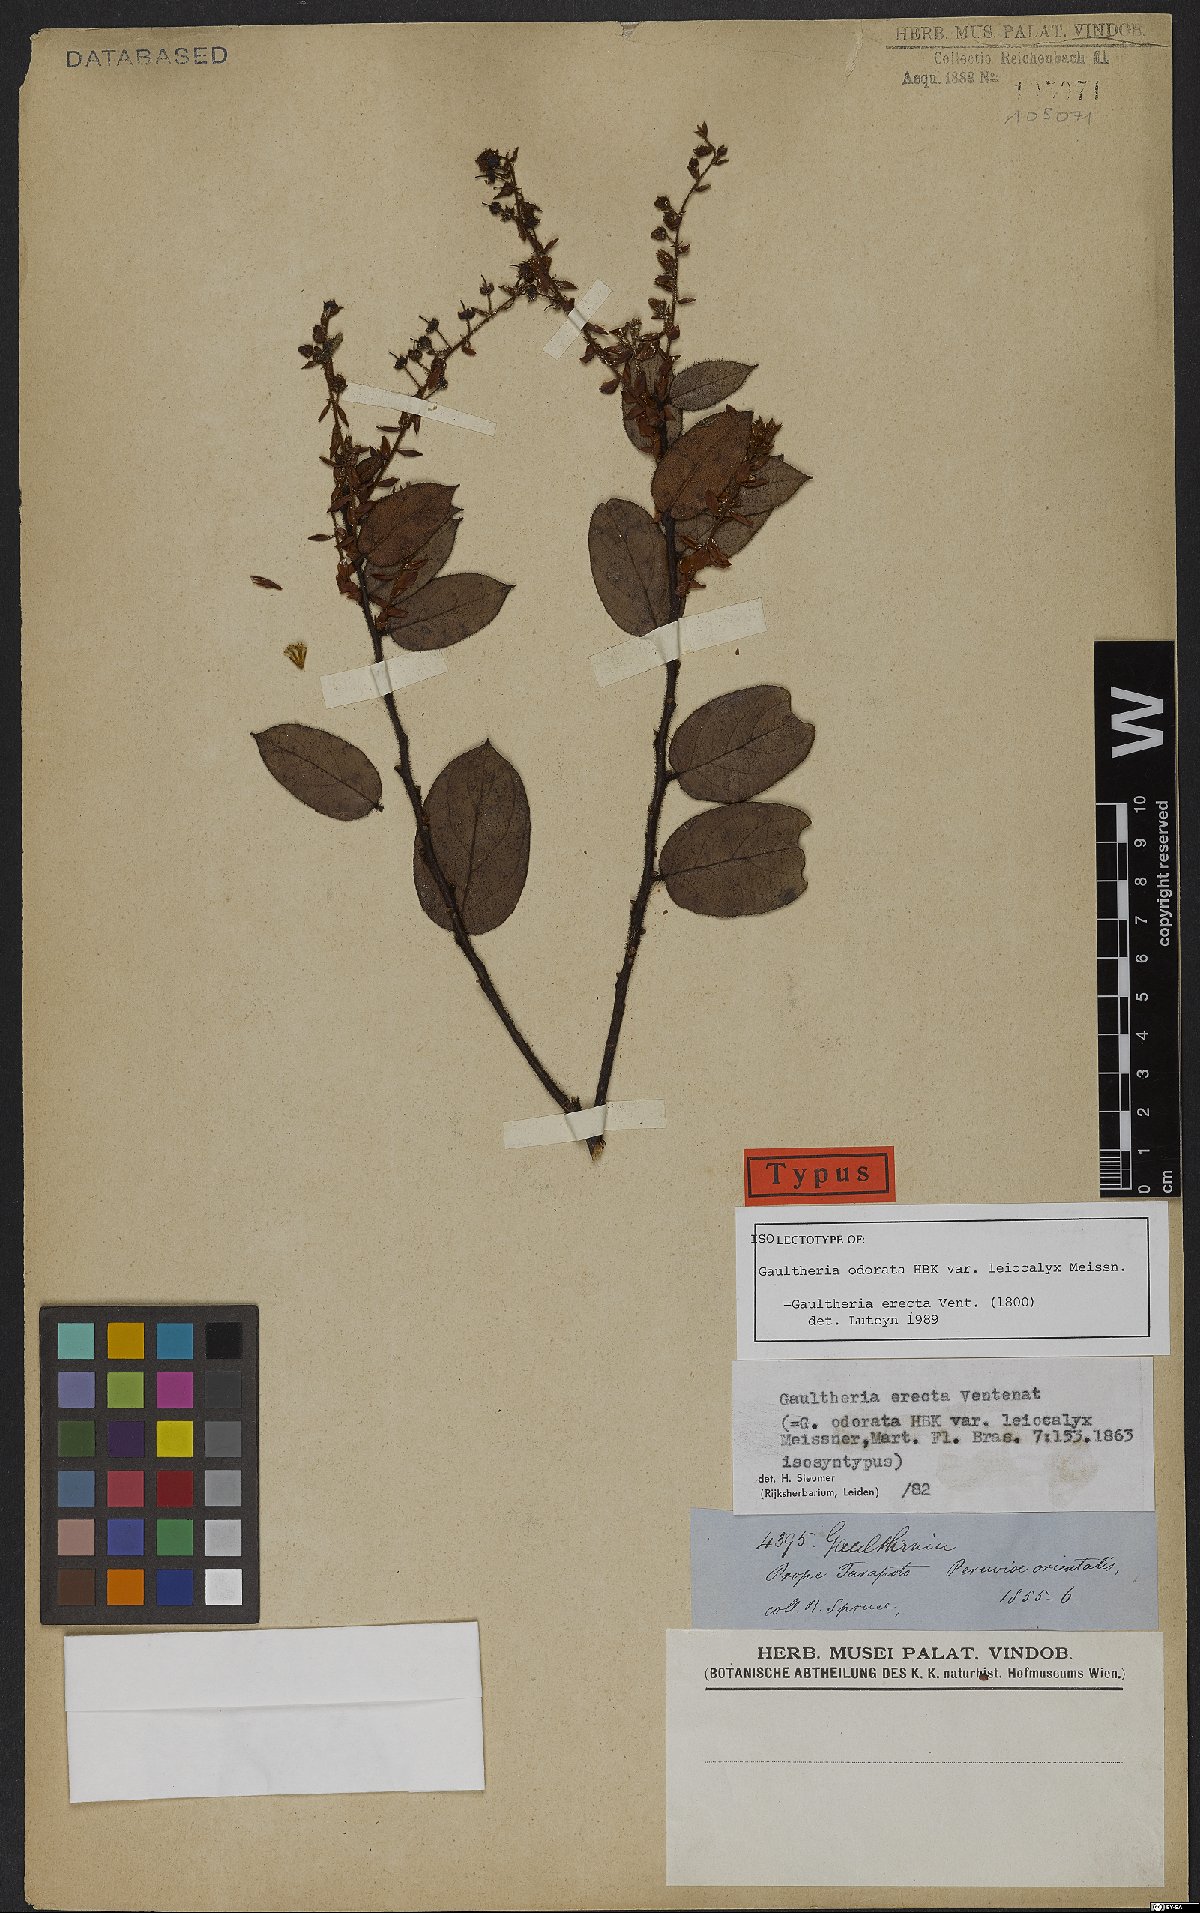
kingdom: Plantae
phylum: Tracheophyta
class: Magnoliopsida
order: Ericales
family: Ericaceae
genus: Gaultheria
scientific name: Gaultheria erecta
